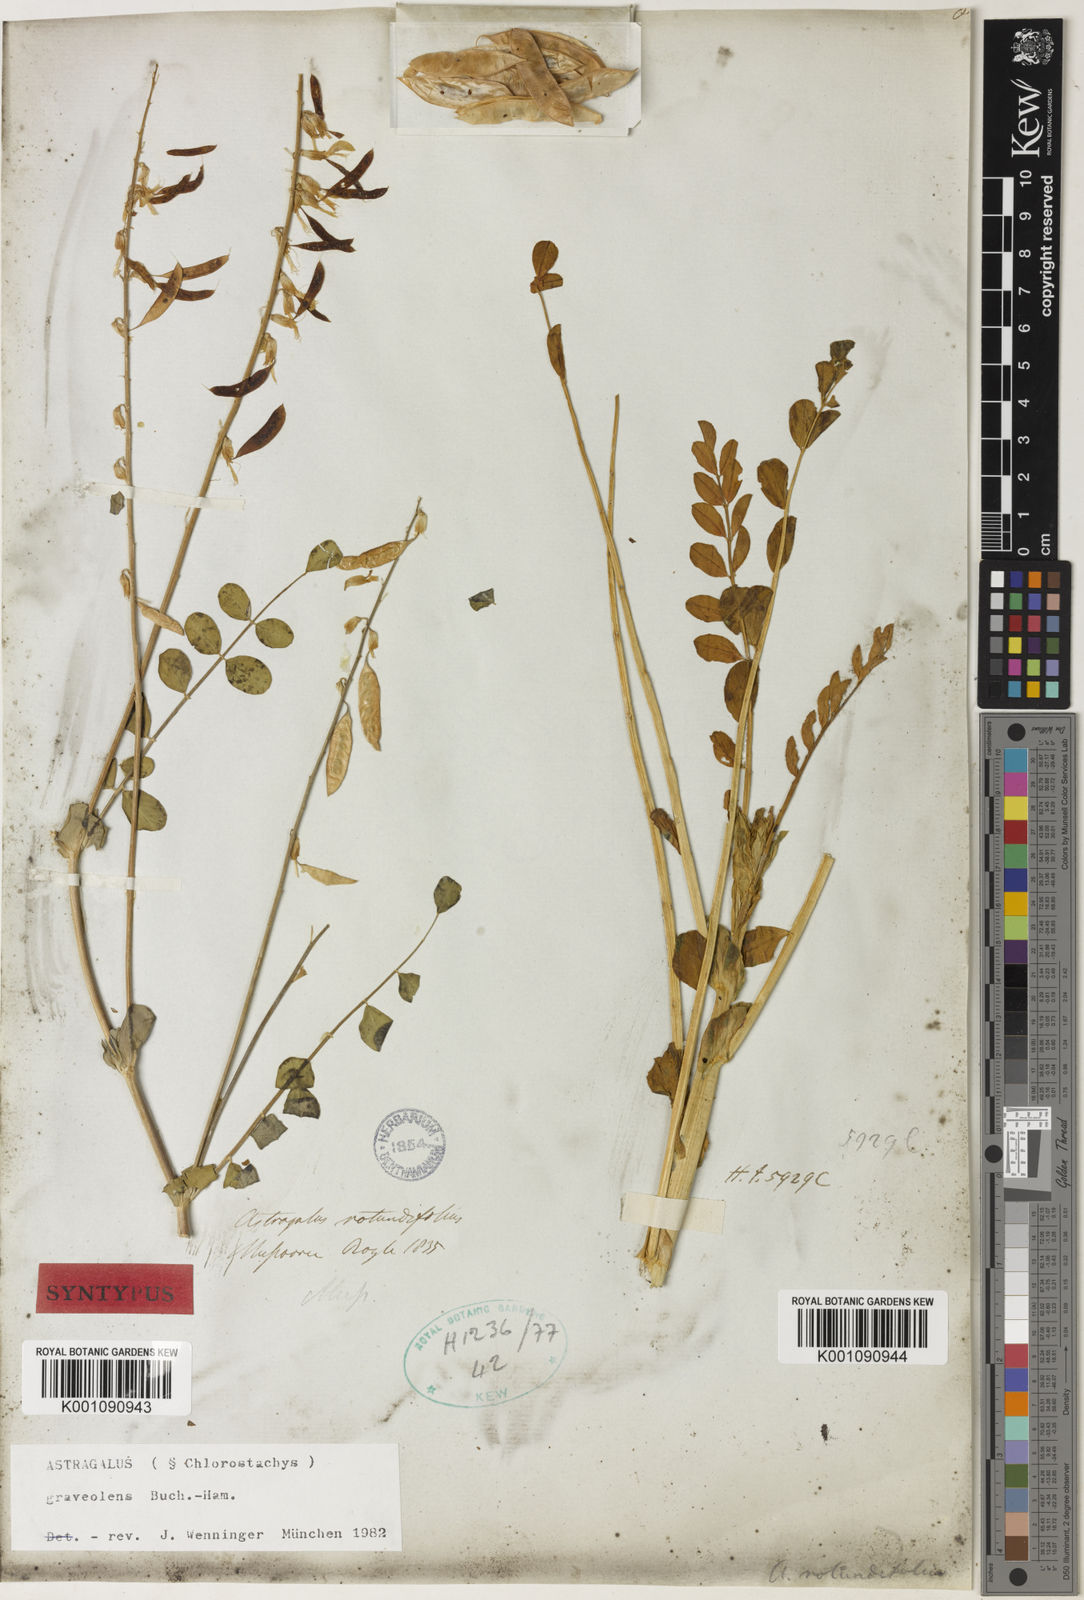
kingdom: Plantae
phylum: Tracheophyta
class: Magnoliopsida
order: Fabales
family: Fabaceae
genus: Astragalus
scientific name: Astragalus
